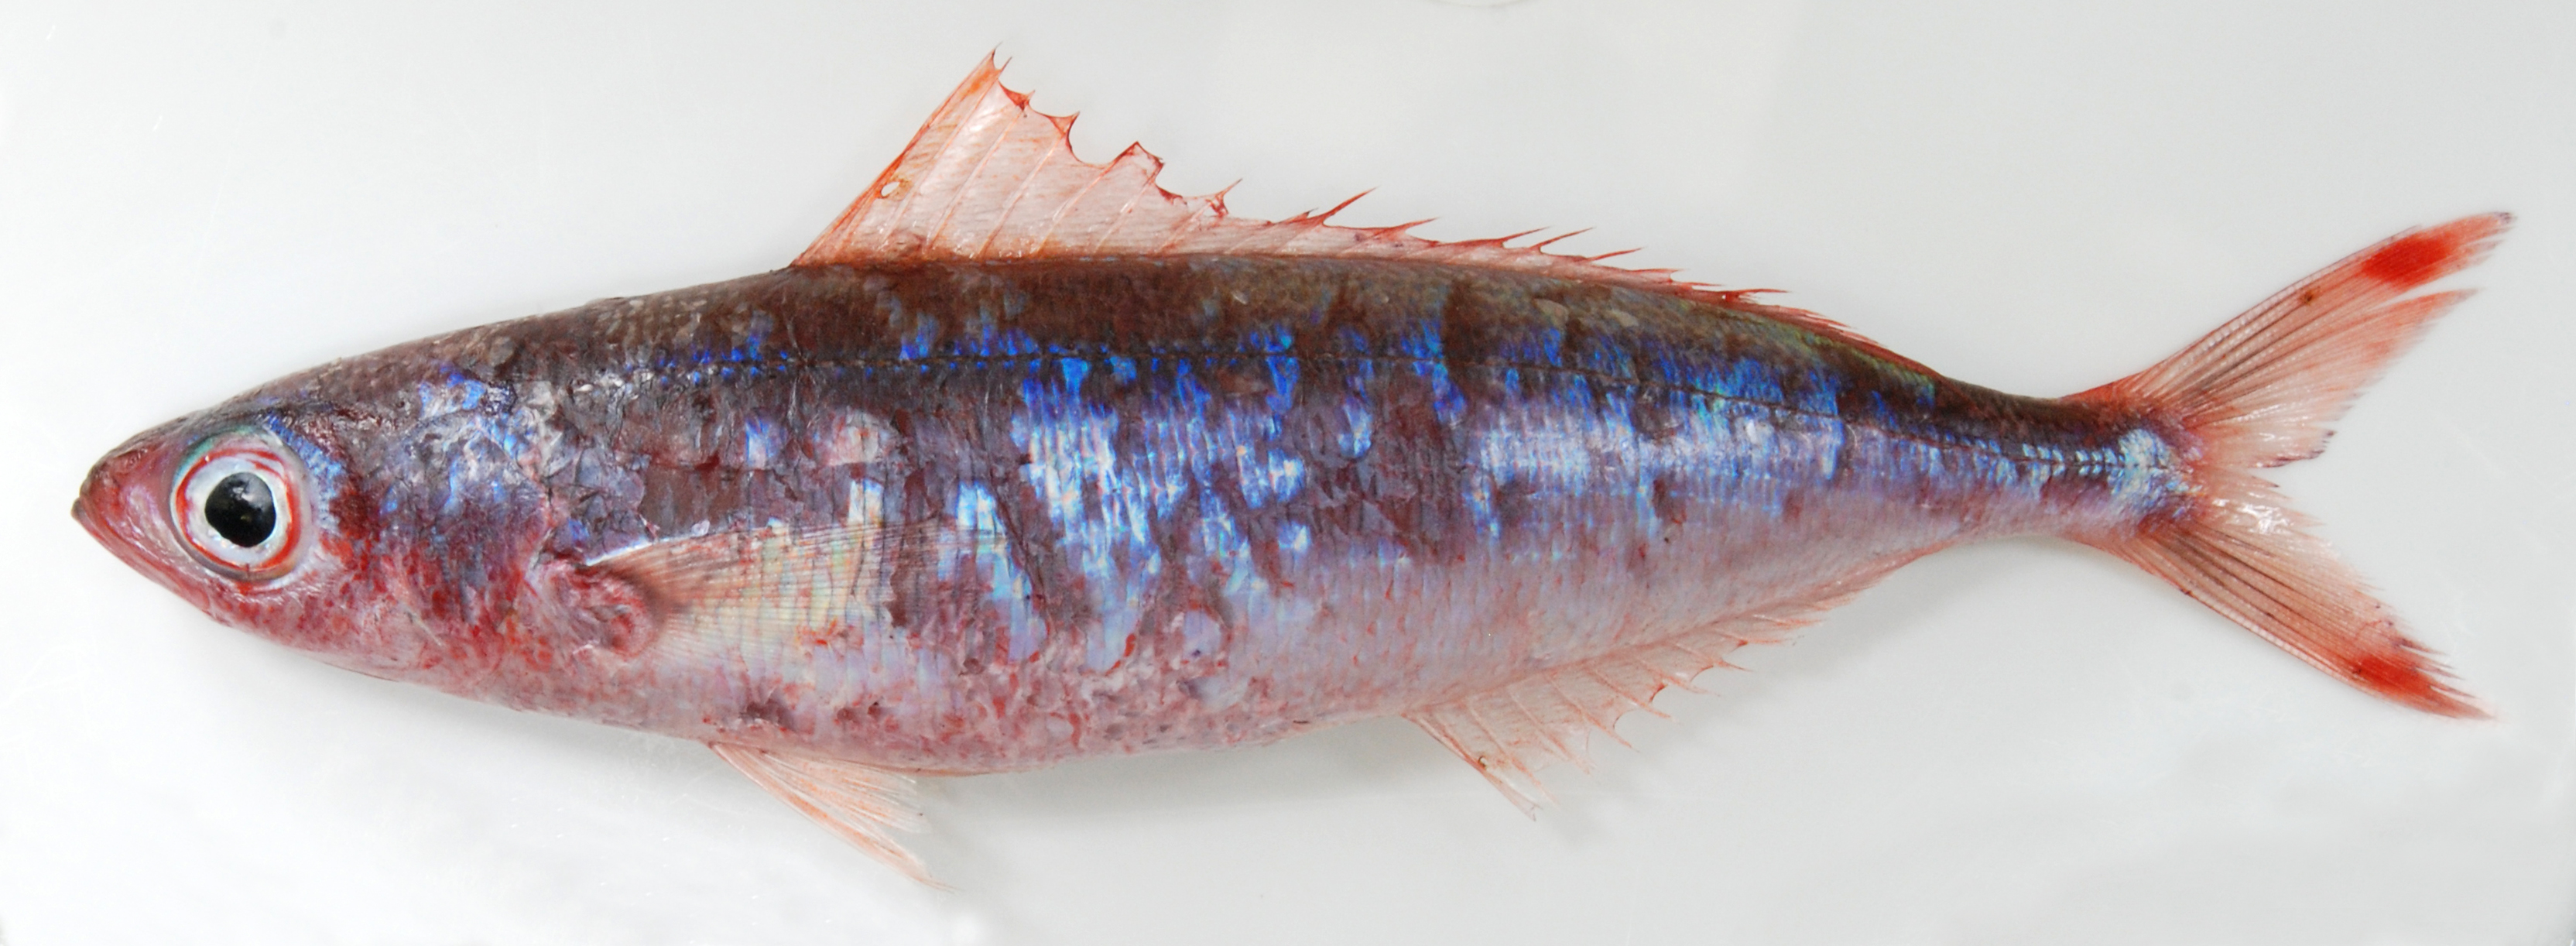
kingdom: Animalia
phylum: Chordata
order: Perciformes
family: Caesionidae
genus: Pterocaesio
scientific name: Pterocaesio marri
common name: Marr's fusilier
